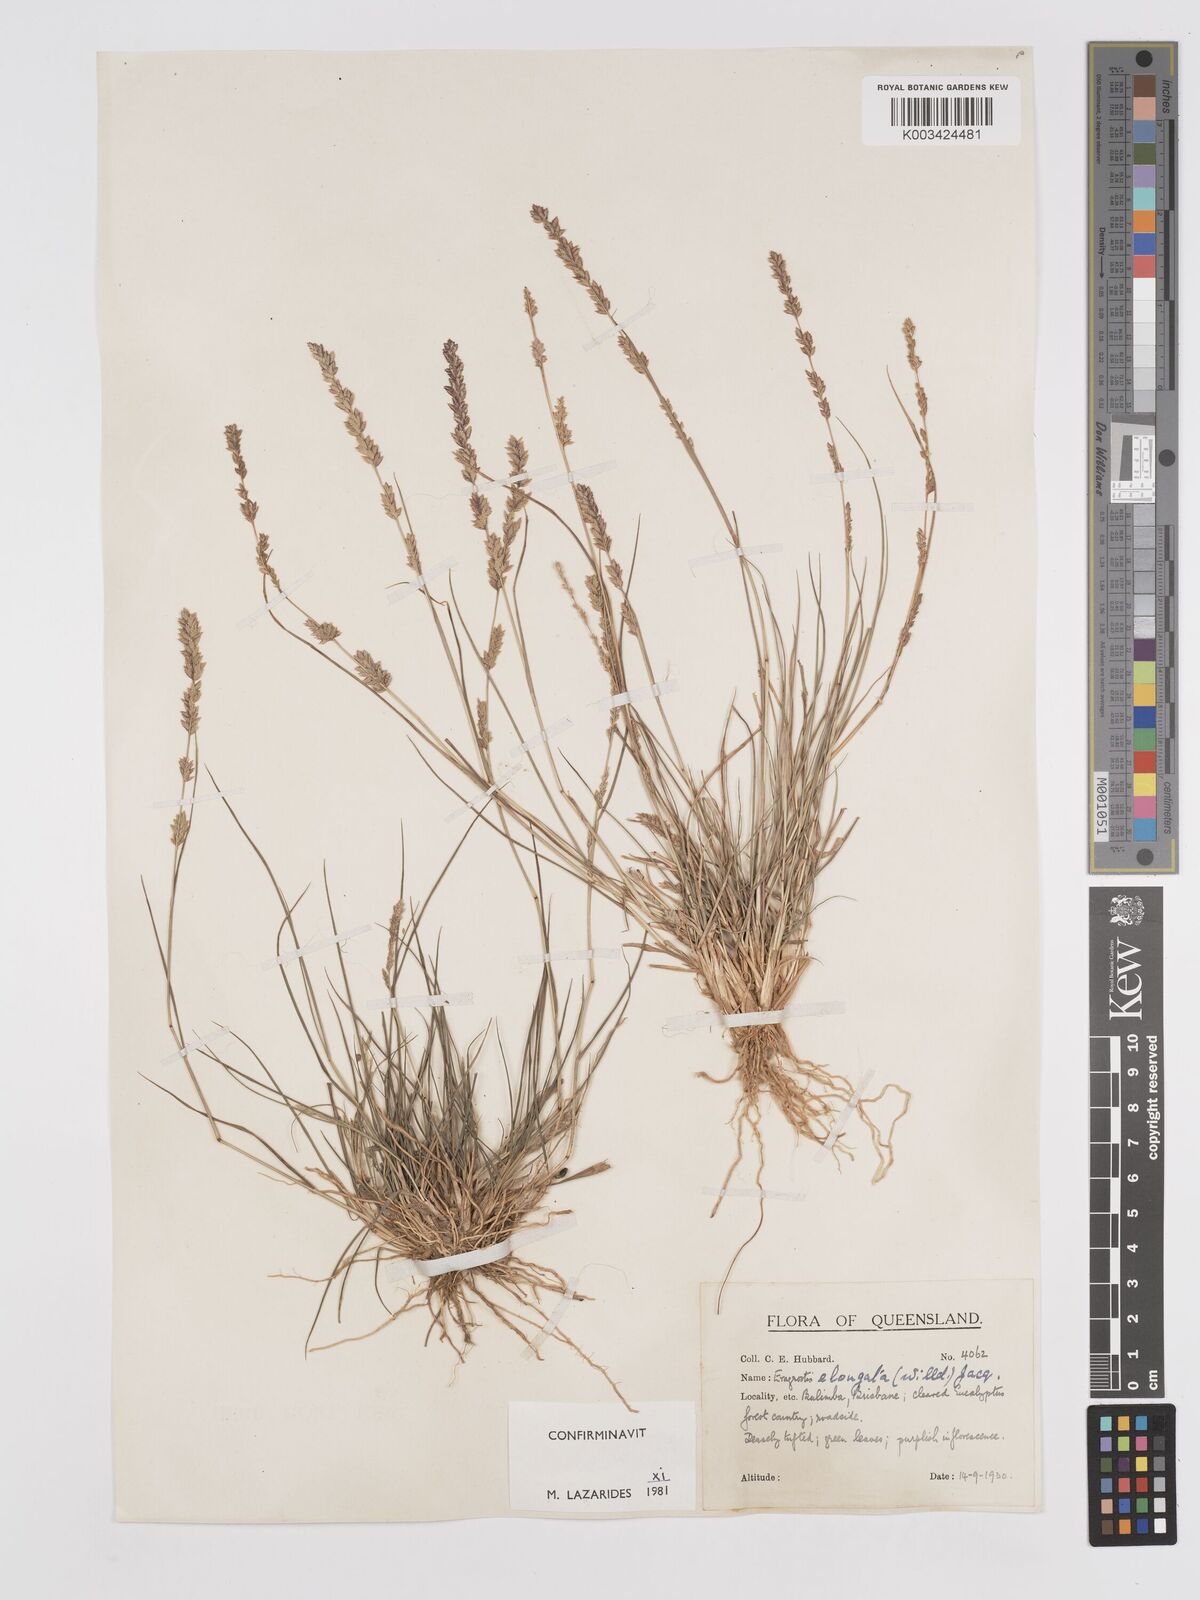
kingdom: Plantae
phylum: Tracheophyta
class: Liliopsida
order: Poales
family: Poaceae
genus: Eragrostis
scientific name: Eragrostis elongata
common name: Long lovegrass
